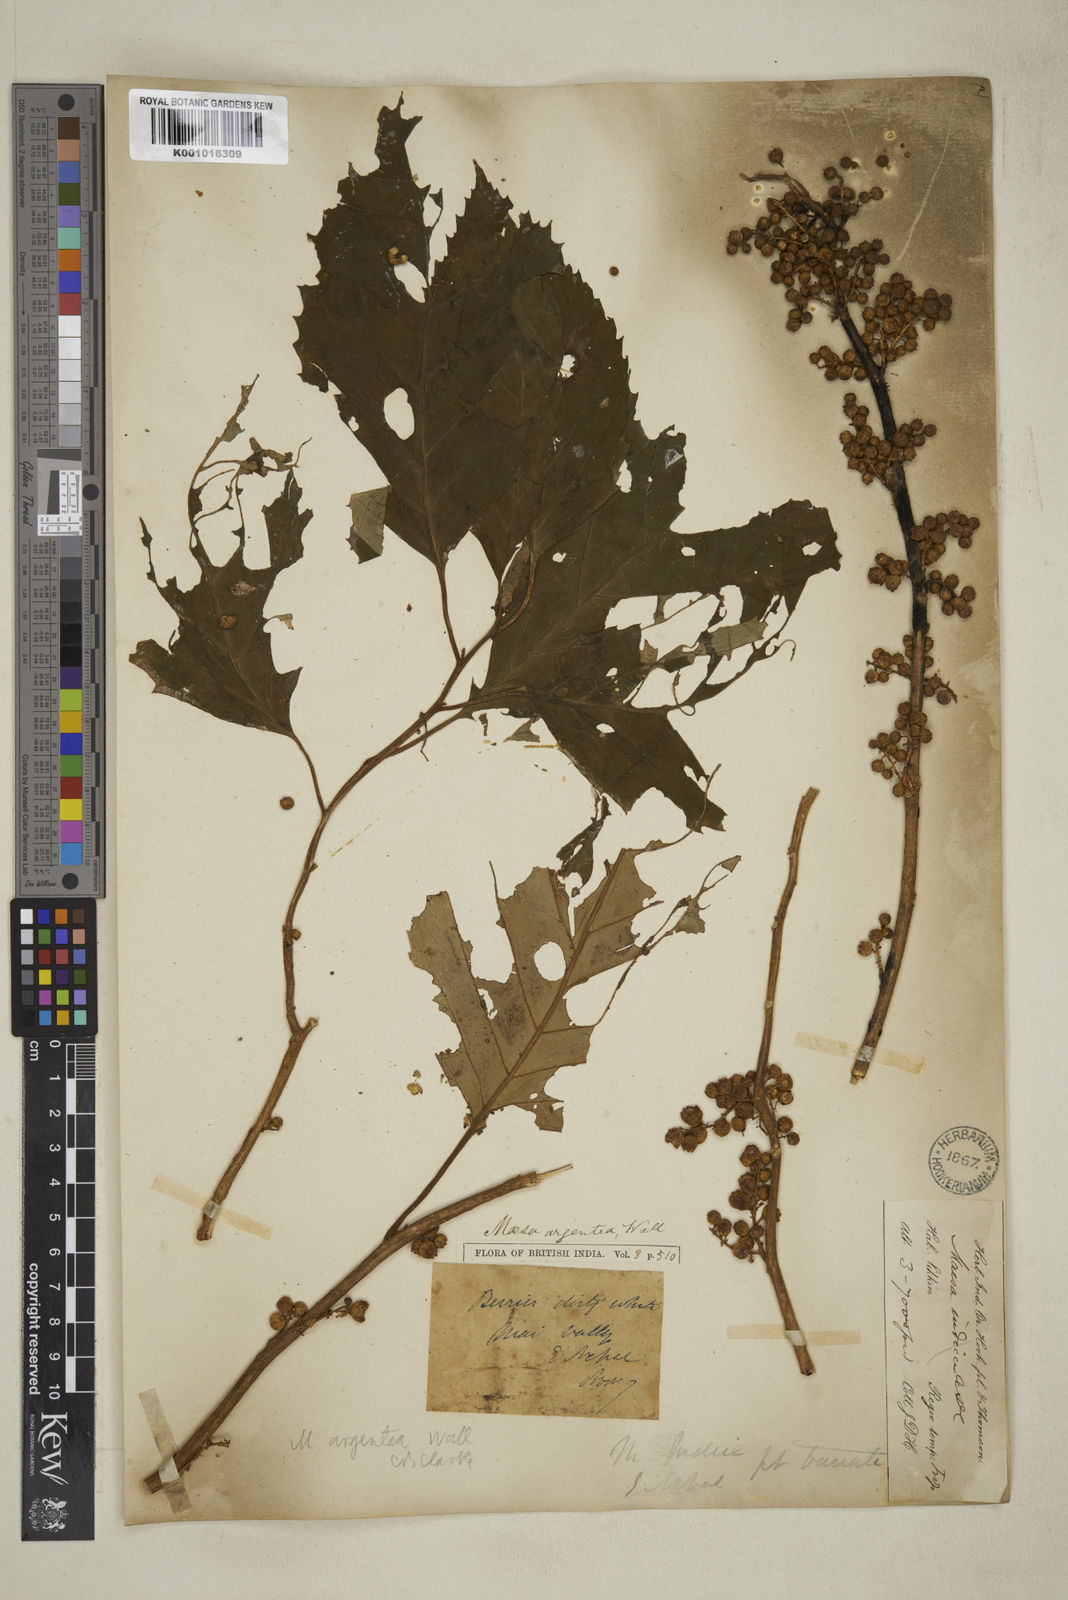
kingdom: Plantae
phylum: Tracheophyta
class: Magnoliopsida
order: Lamiales
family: Orobanchaceae
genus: Pedicularis
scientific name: Pedicularis gibbera
